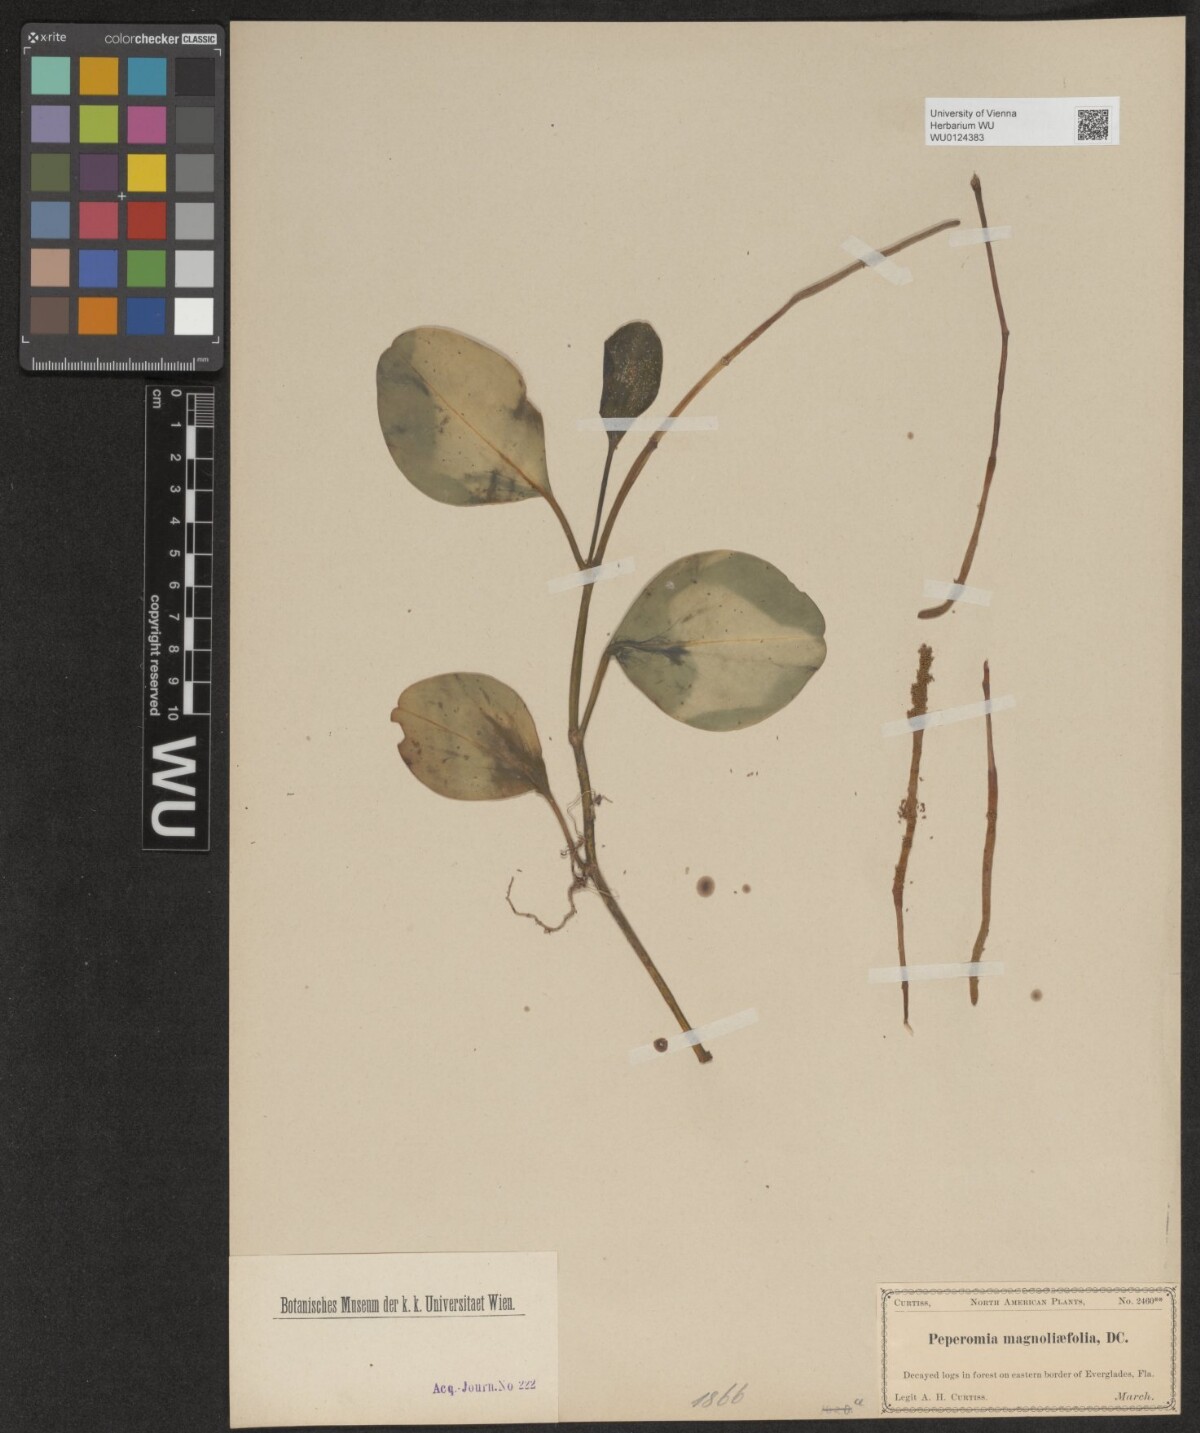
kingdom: Plantae
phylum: Tracheophyta
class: Magnoliopsida
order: Piperales
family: Piperaceae
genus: Peperomia
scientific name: Peperomia magnoliifolia
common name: Spoonleaf peperomia
